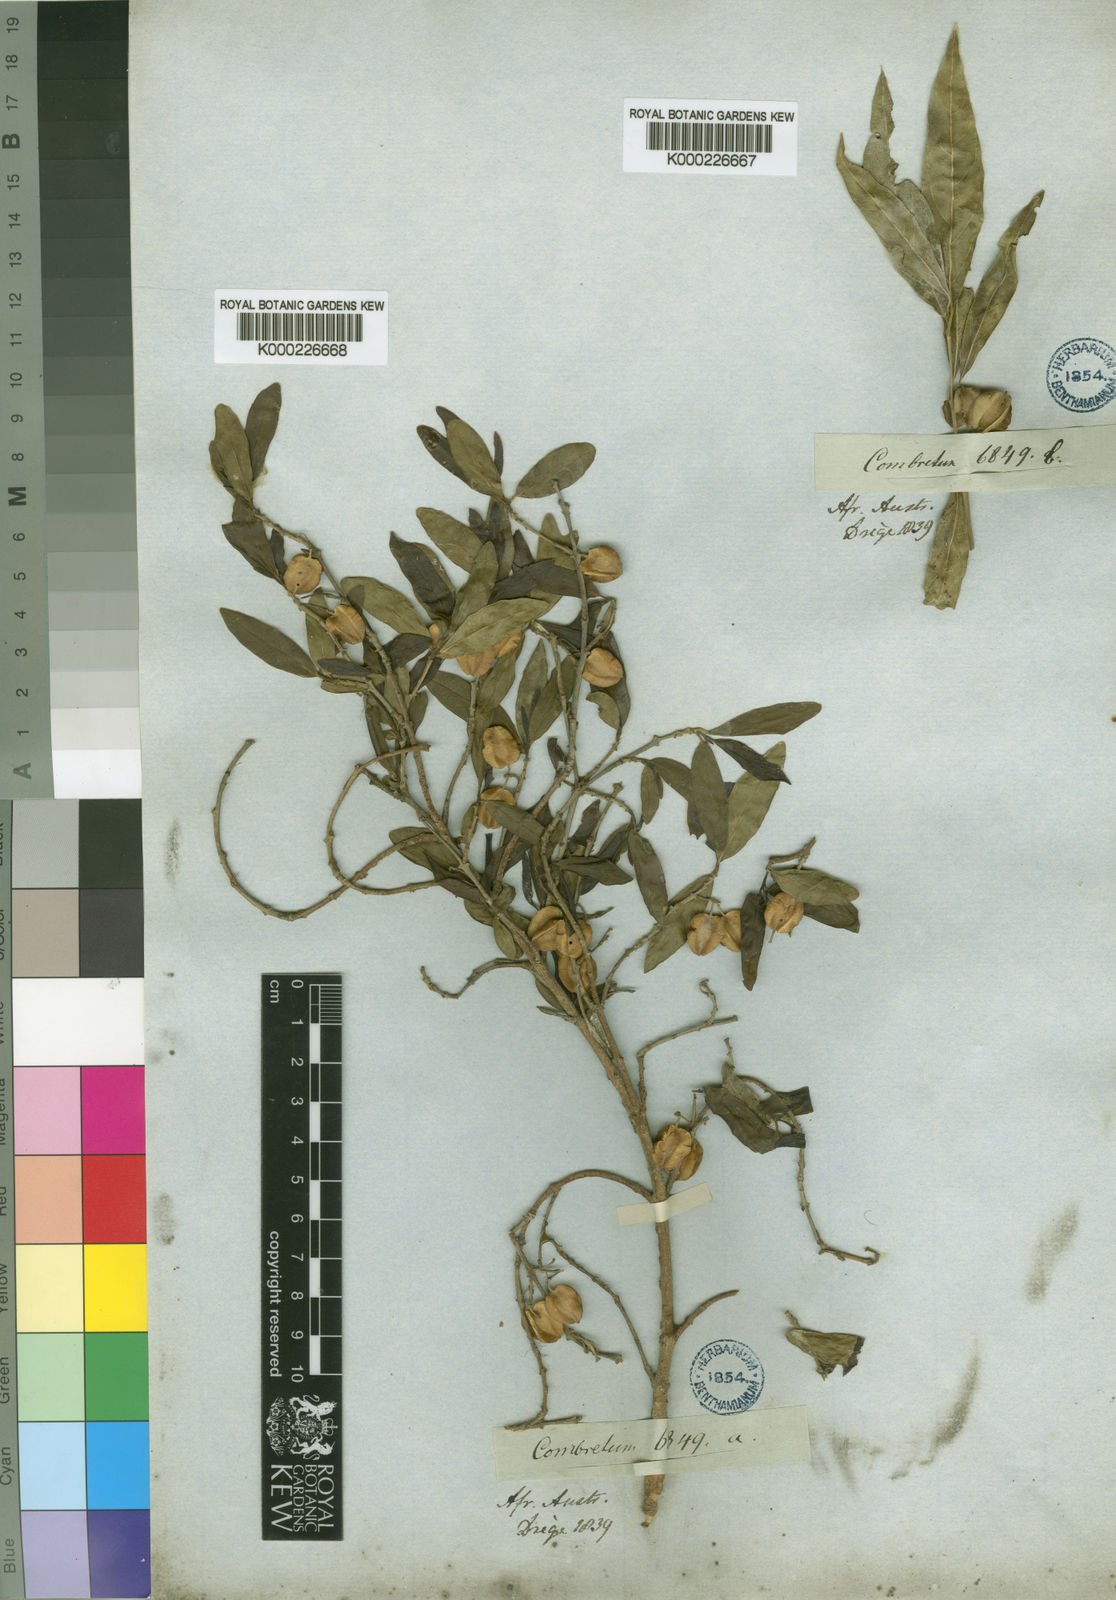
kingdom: Plantae
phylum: Tracheophyta
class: Magnoliopsida
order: Myrtales
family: Combretaceae
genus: Combretum
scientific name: Combretum caffrum
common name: Cape bushwillow
